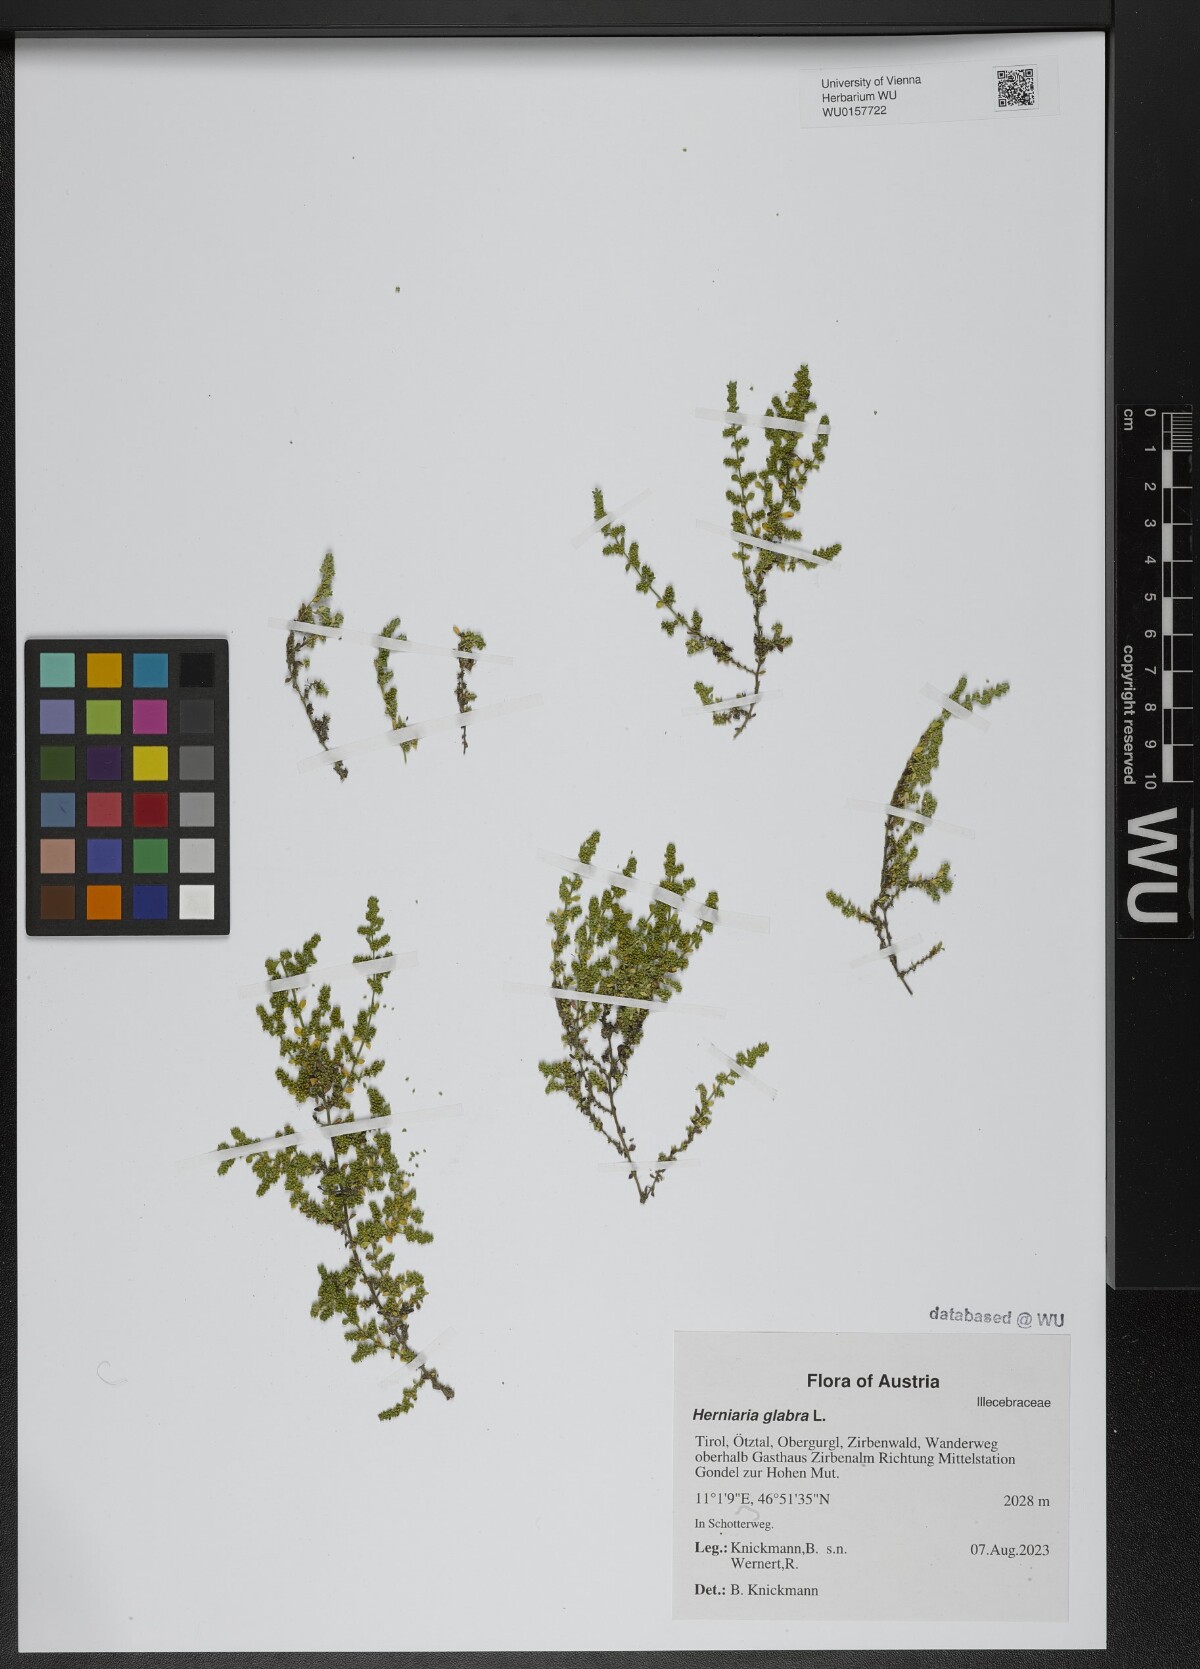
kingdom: Plantae
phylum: Tracheophyta
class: Magnoliopsida
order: Caryophyllales
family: Caryophyllaceae
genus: Herniaria
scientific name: Herniaria glabra
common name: Smooth rupturewort
